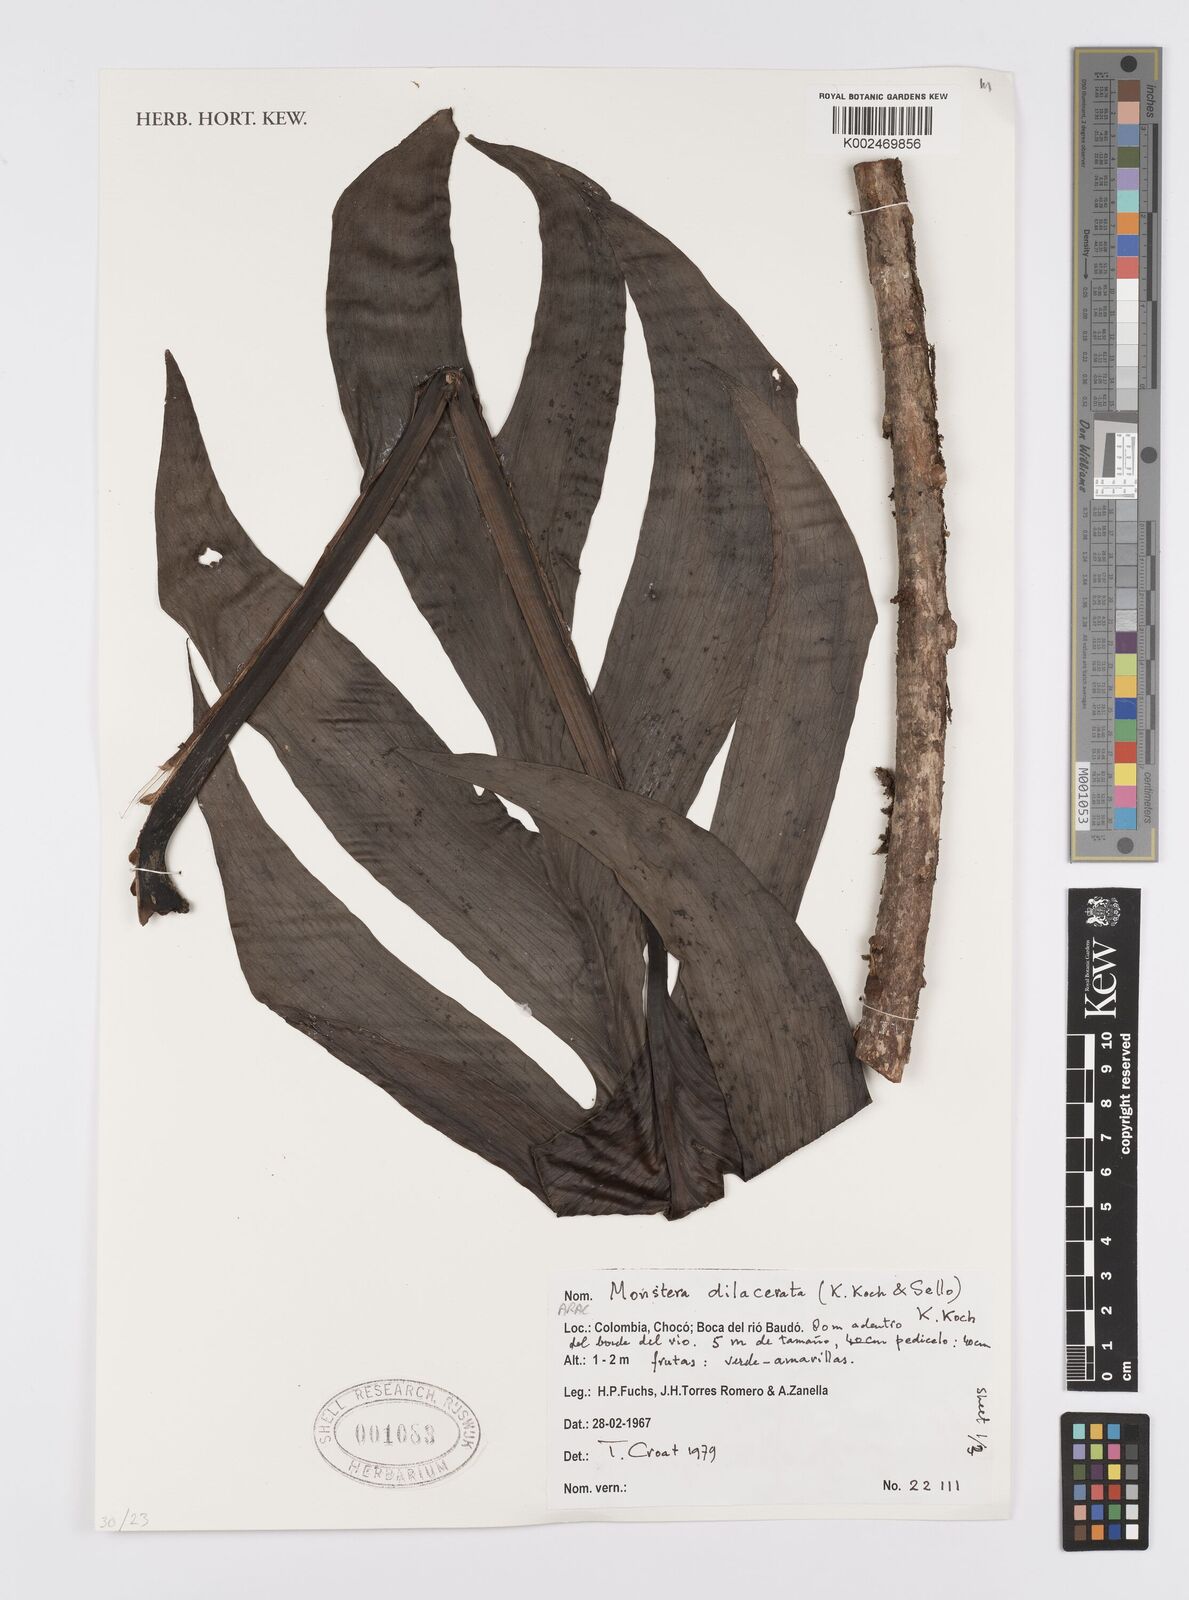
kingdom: Plantae
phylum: Tracheophyta
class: Liliopsida
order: Alismatales
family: Araceae
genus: Monstera
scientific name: Monstera pinnatipartita
